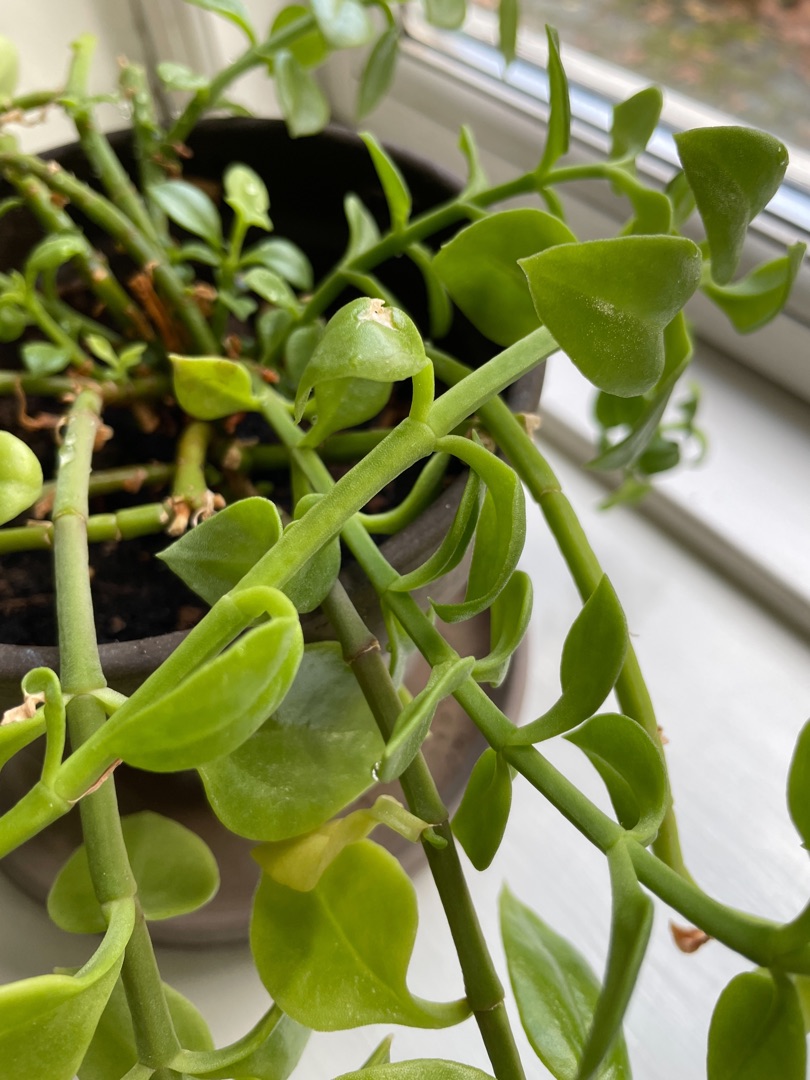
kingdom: Plantae
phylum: Tracheophyta
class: Magnoliopsida
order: Caryophyllales
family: Aizoaceae
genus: Mesembryanthemum
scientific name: Mesembryanthemum cordifolium
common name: Middagshjerte
